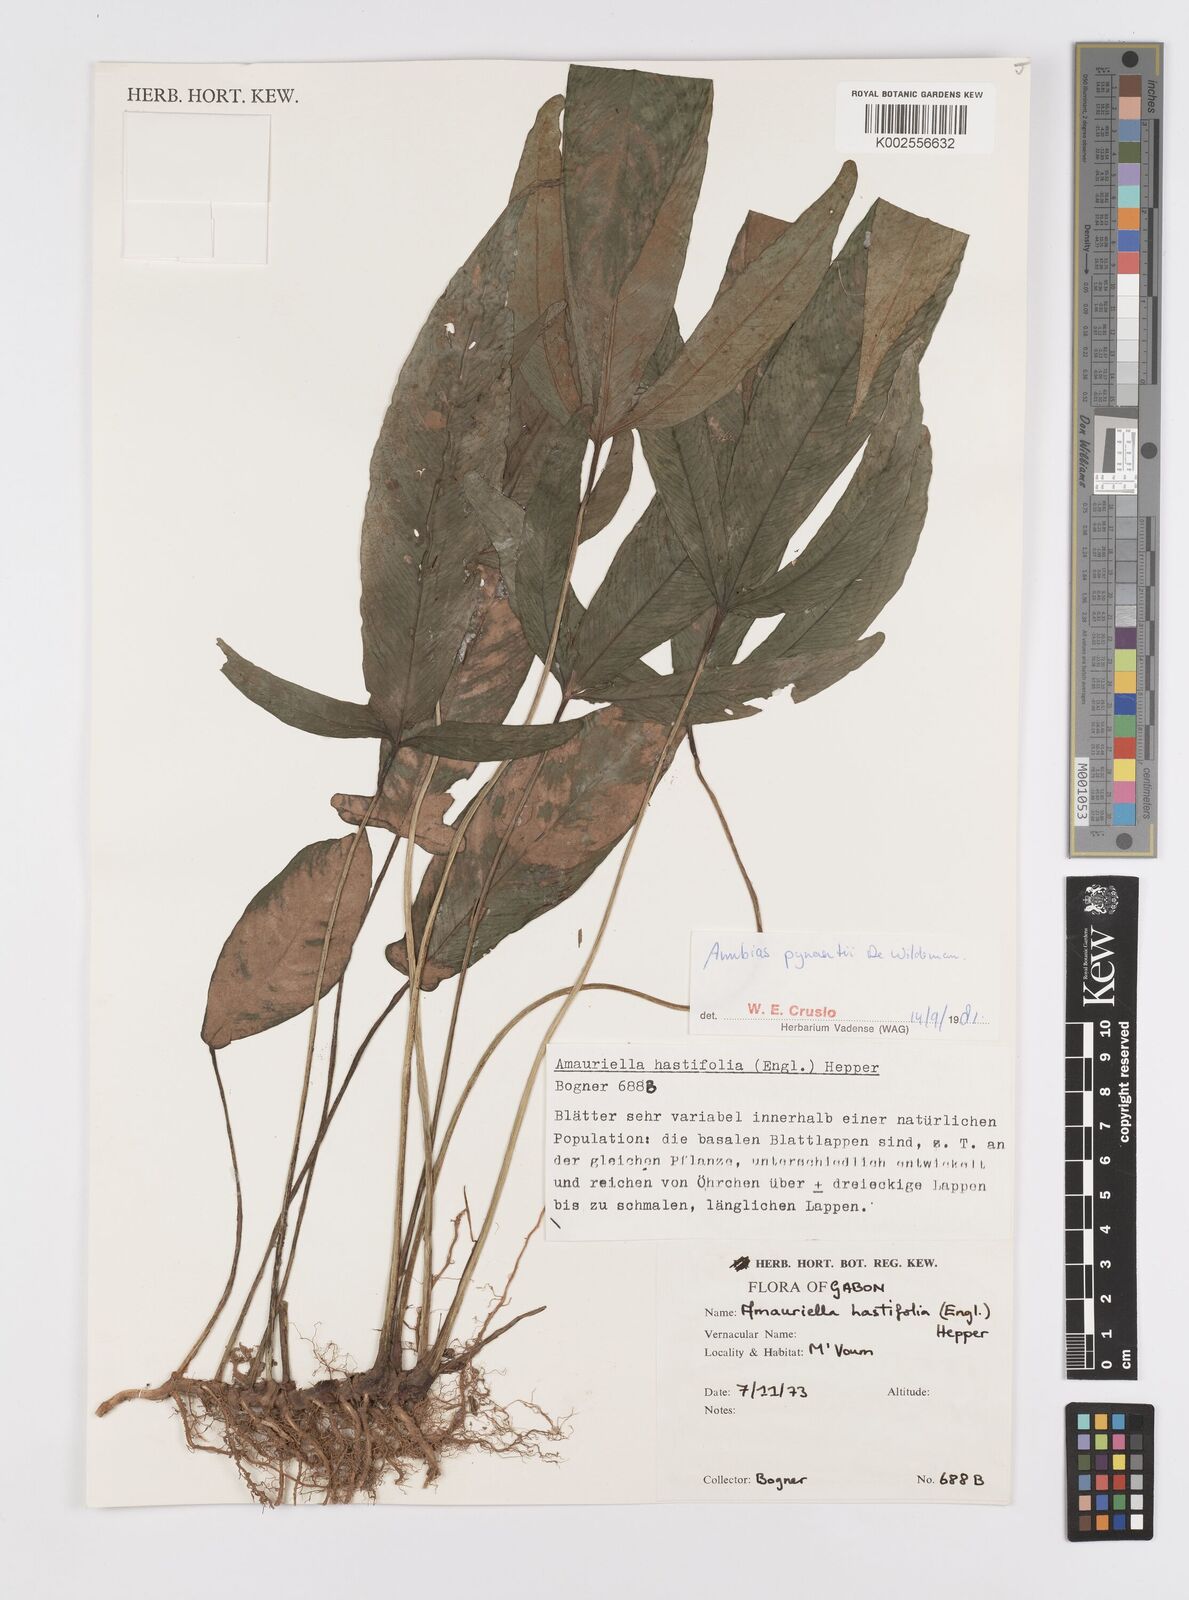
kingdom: Plantae
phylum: Tracheophyta
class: Liliopsida
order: Alismatales
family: Araceae
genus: Anubias
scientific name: Anubias pynaertii
